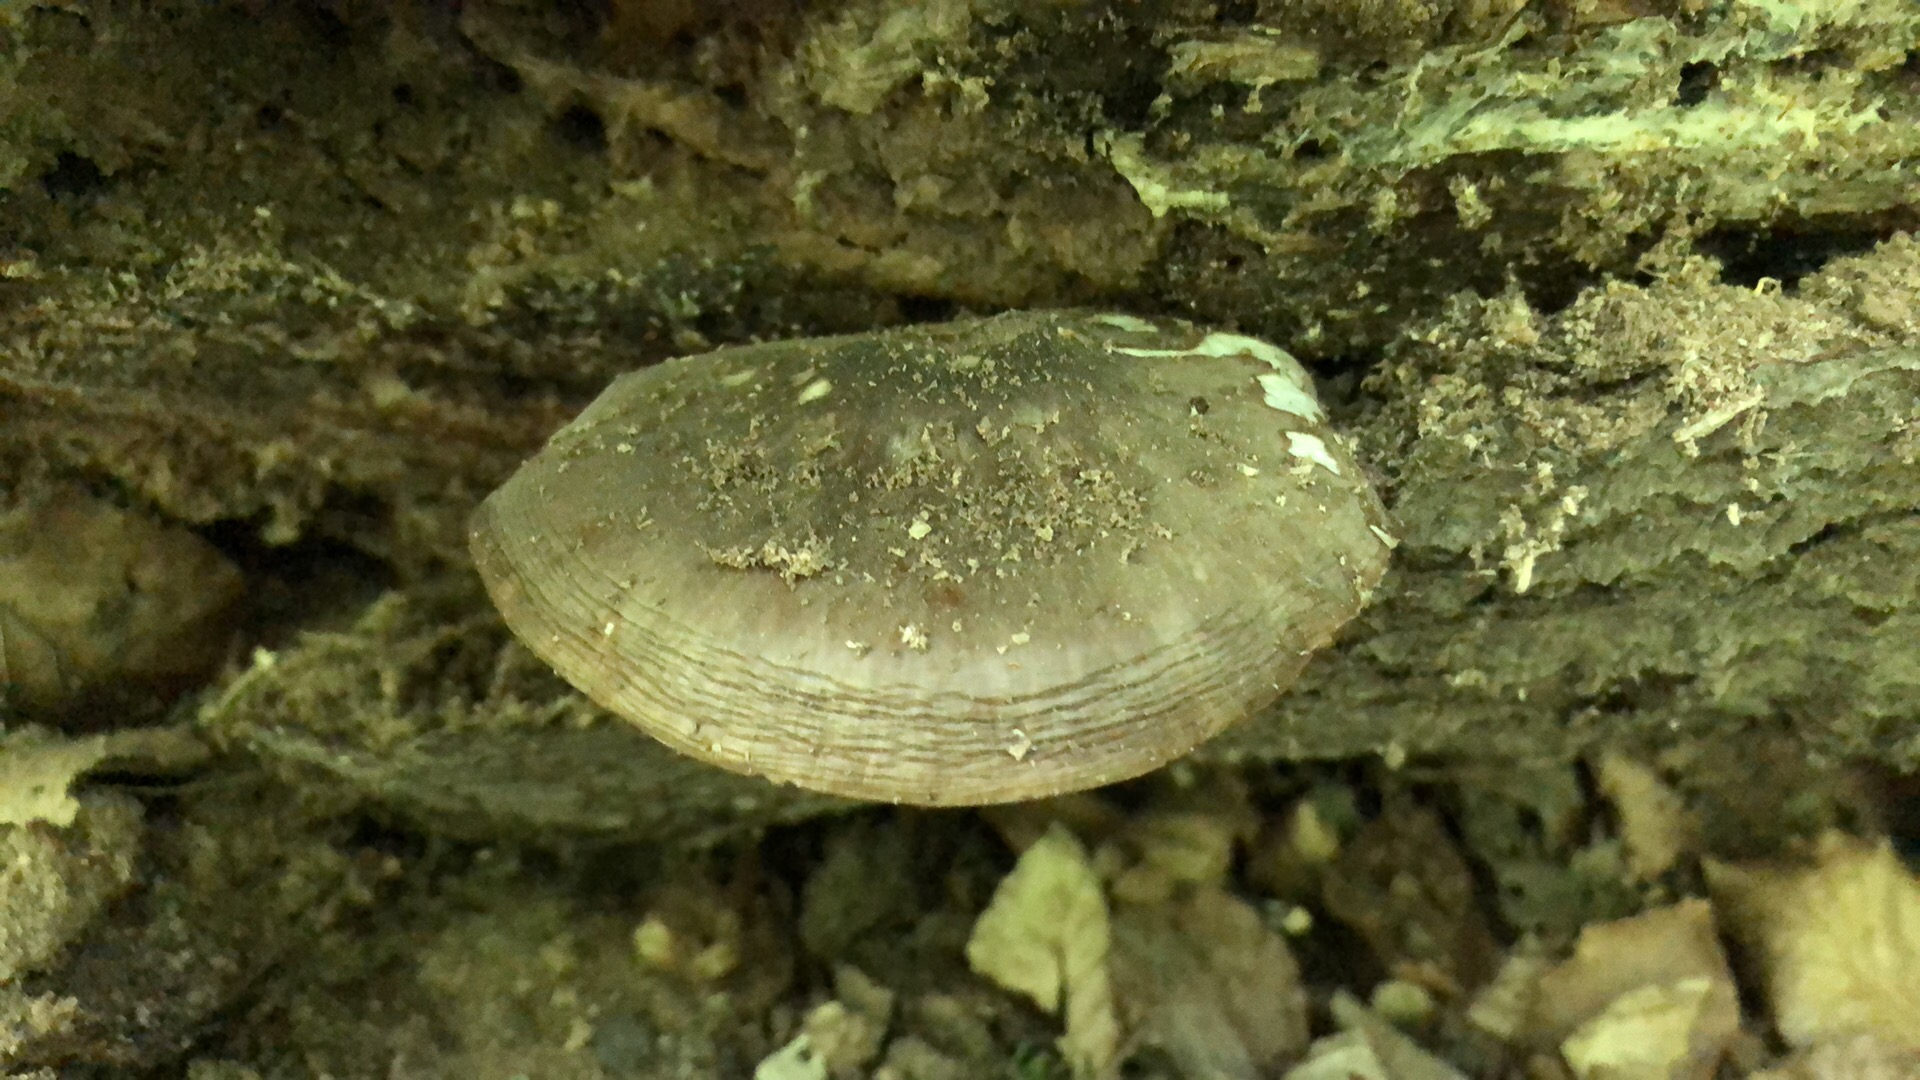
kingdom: Fungi
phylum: Basidiomycota
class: Agaricomycetes
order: Agaricales
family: Pluteaceae
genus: Pluteus
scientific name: Pluteus cervinus
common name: sodfarvet skærmhat
